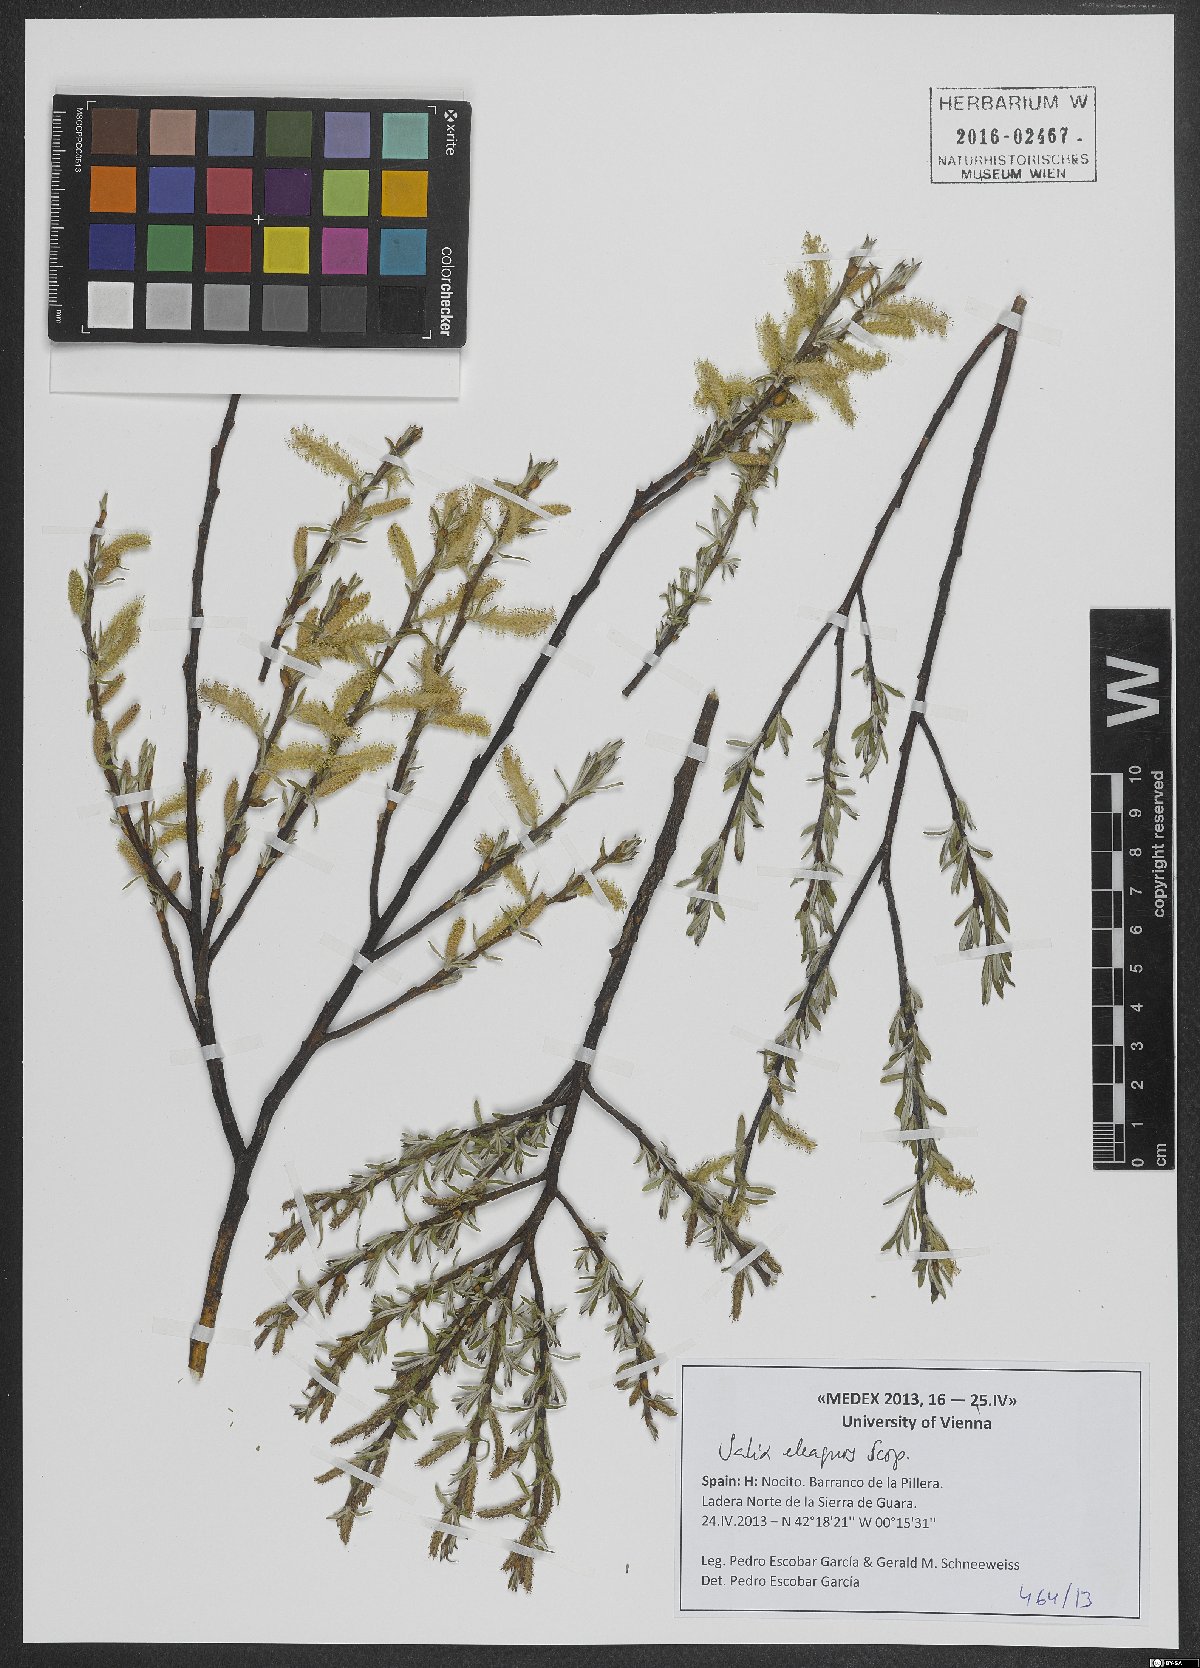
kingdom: Plantae
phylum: Tracheophyta
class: Magnoliopsida
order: Malpighiales
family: Salicaceae
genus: Salix
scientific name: Salix eleagnos
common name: Elaeagnus willow
